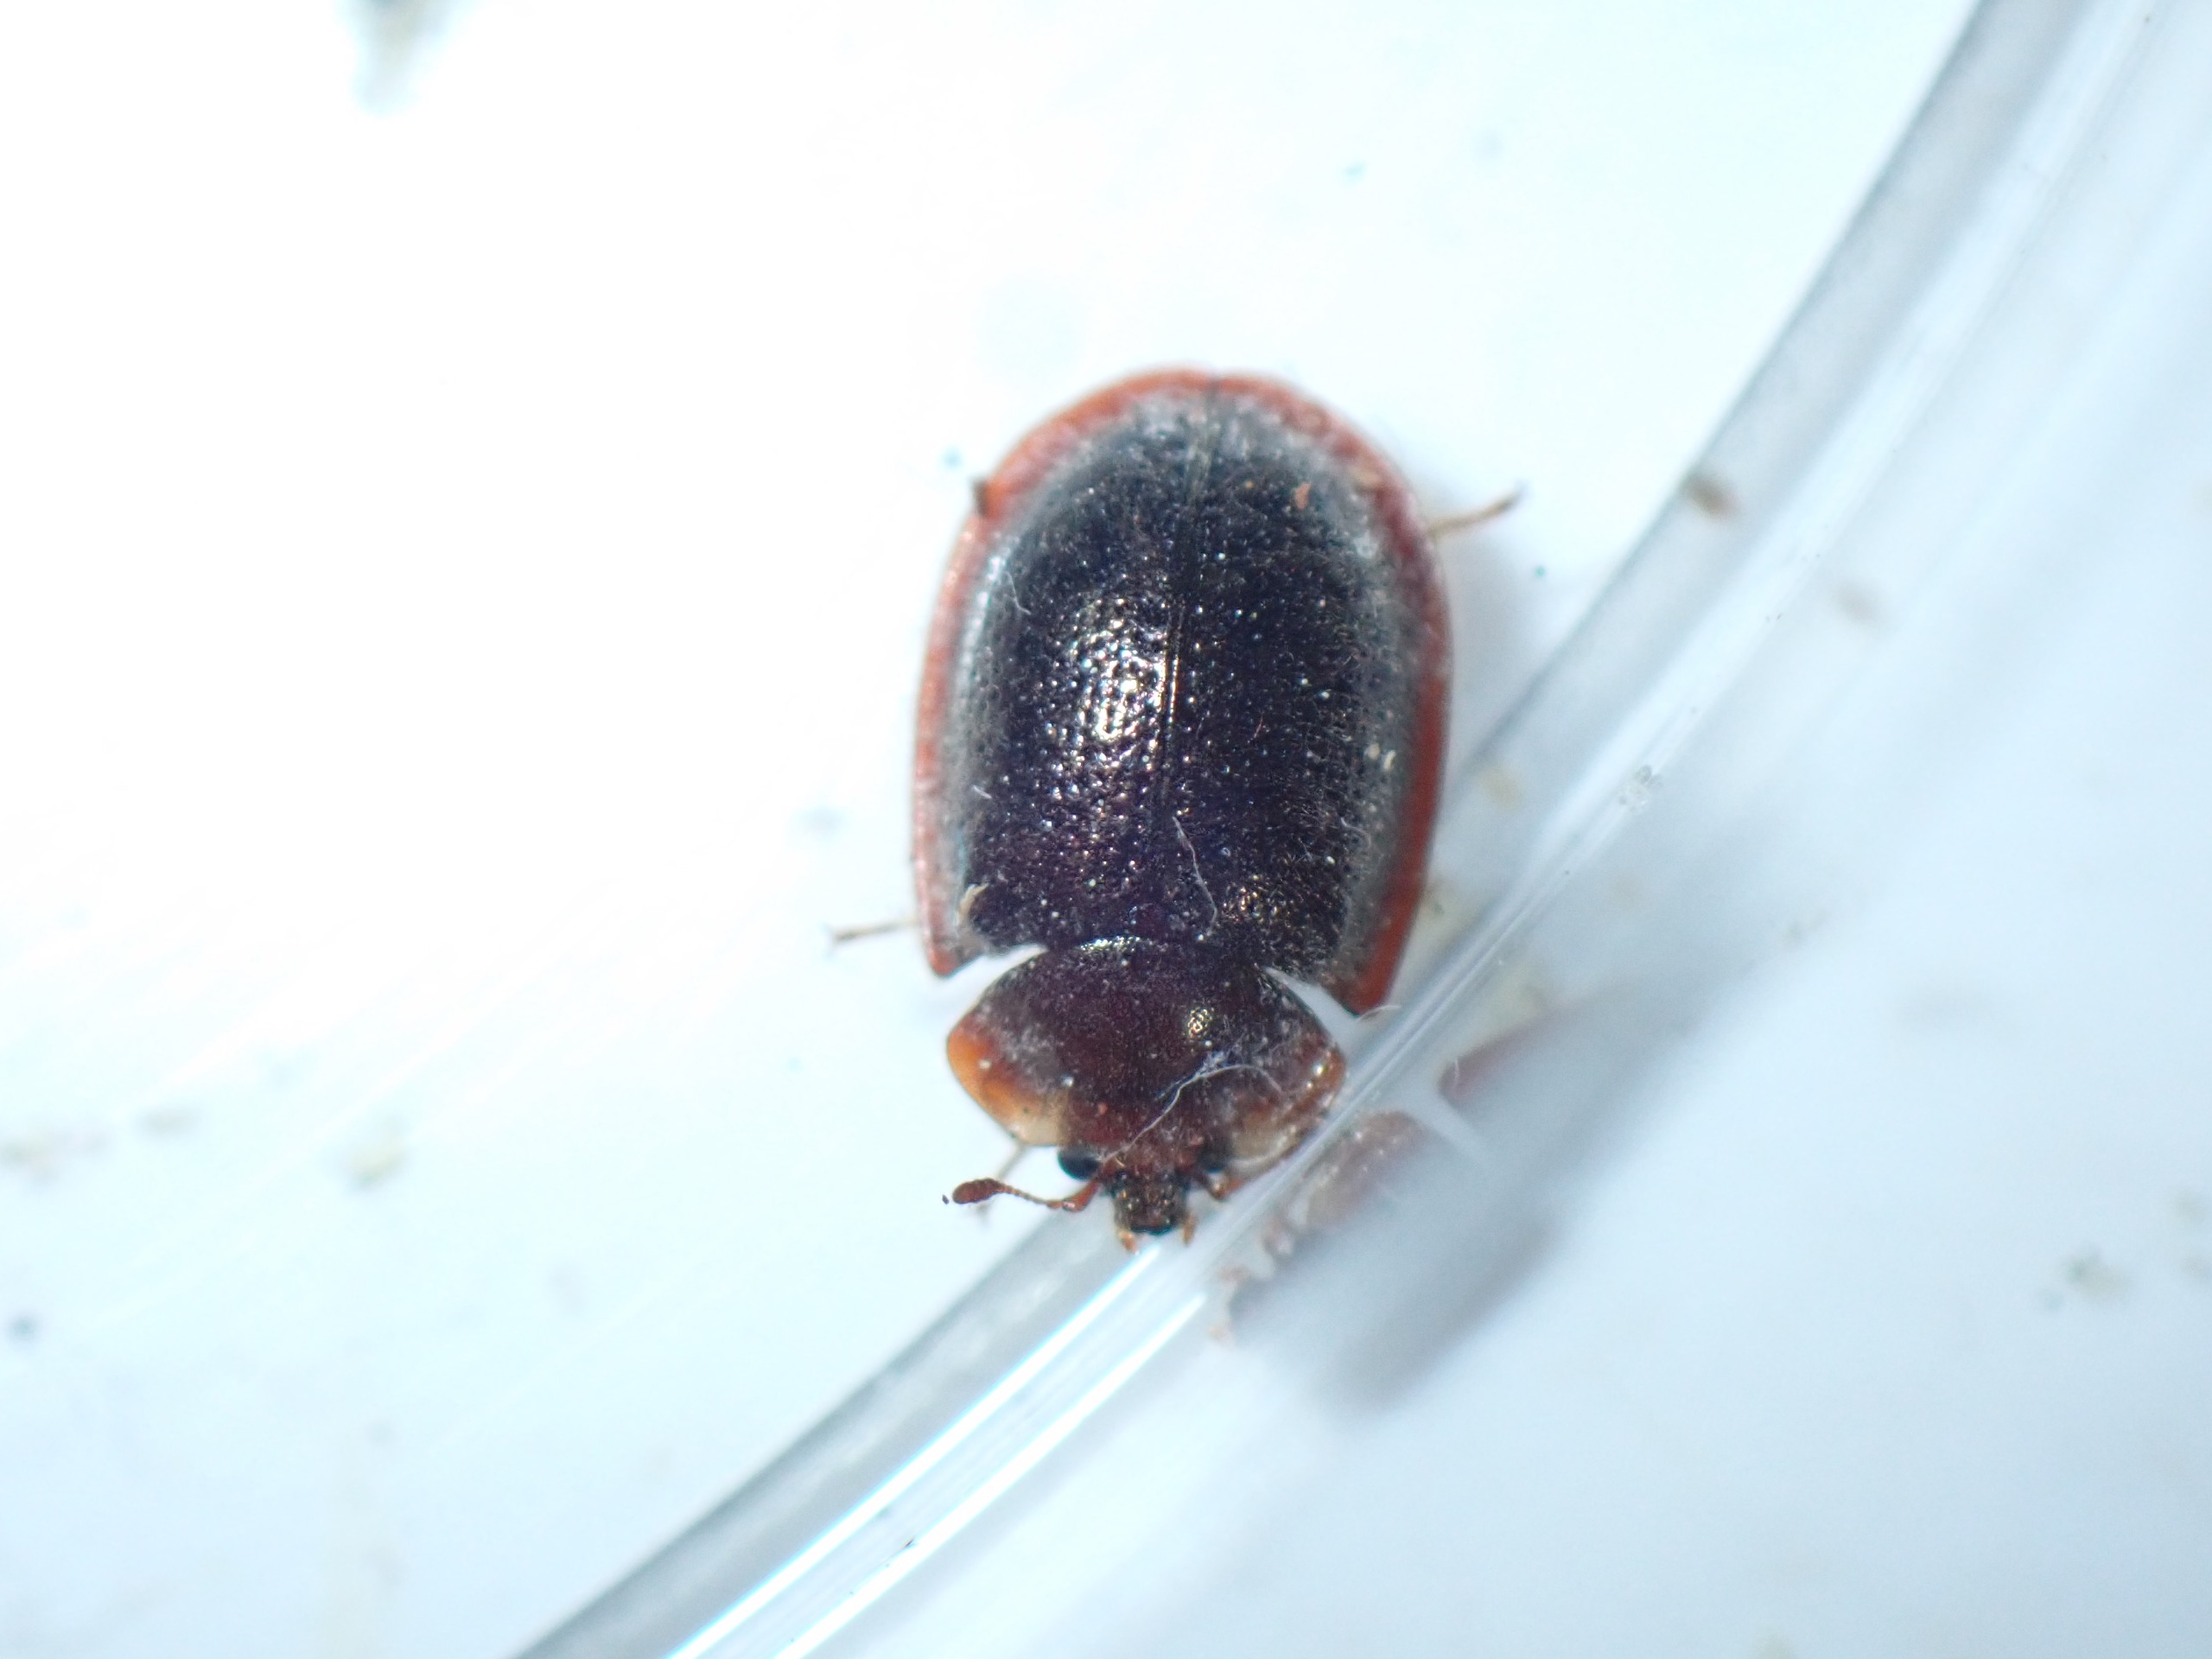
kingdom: Animalia
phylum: Arthropoda
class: Insecta
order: Coleoptera
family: Trogossitidae
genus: Thymalus
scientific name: Thymalus limbatus
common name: Falsk skjoldbille
